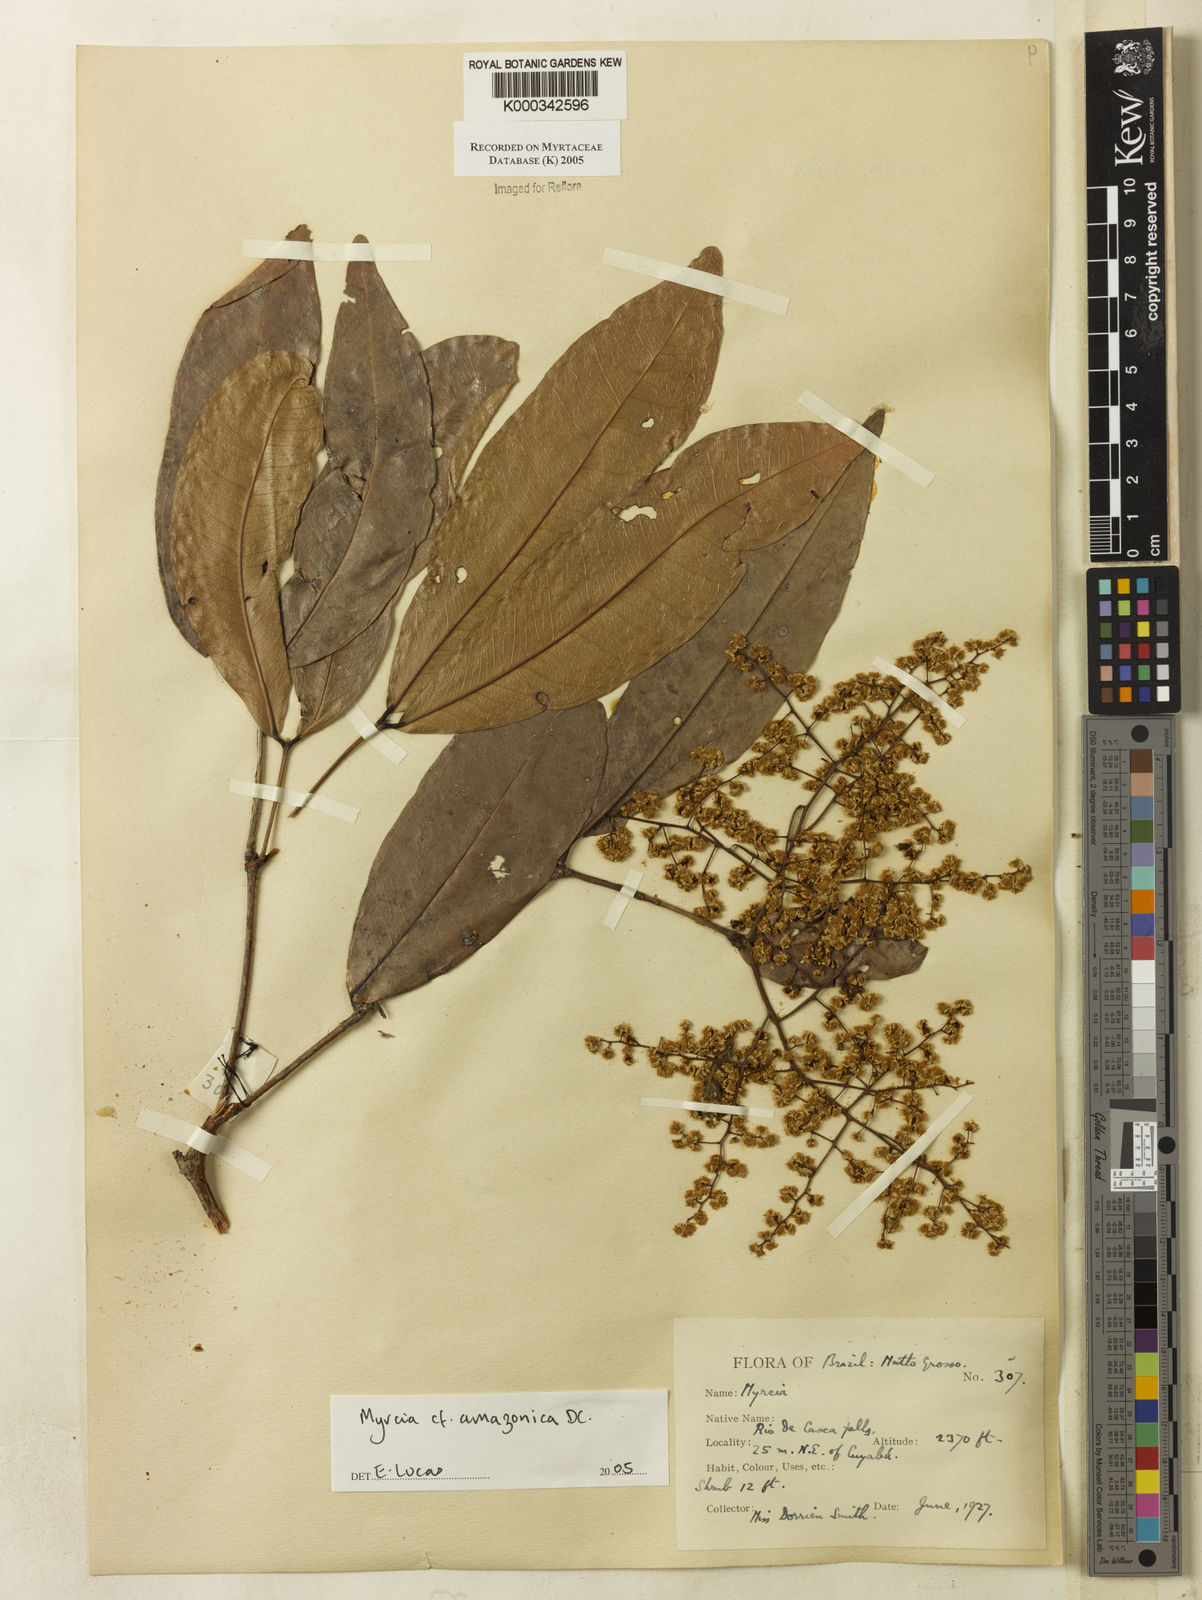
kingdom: Plantae
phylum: Tracheophyta
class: Magnoliopsida
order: Myrtales
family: Myrtaceae
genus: Myrcia
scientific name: Myrcia amazonica
